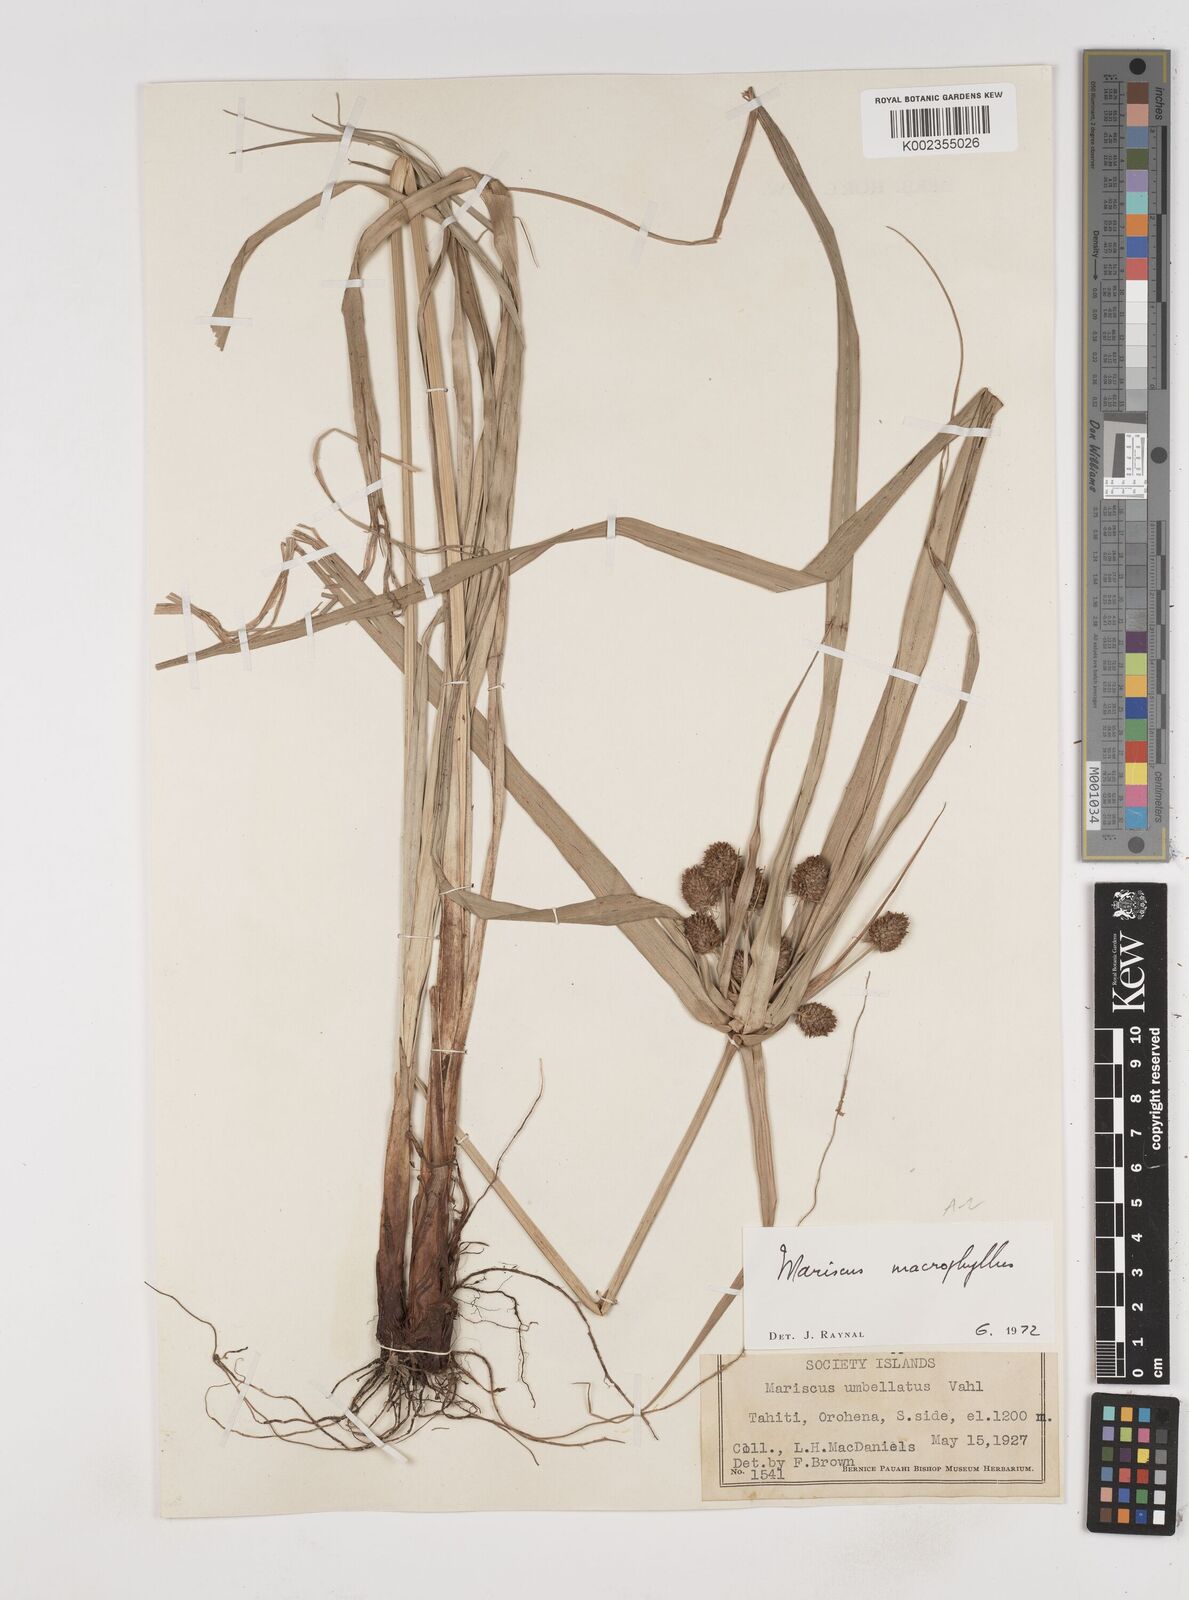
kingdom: Plantae
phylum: Tracheophyta
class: Liliopsida
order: Poales
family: Cyperaceae
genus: Cyperus
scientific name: Cyperus macrophyllus
